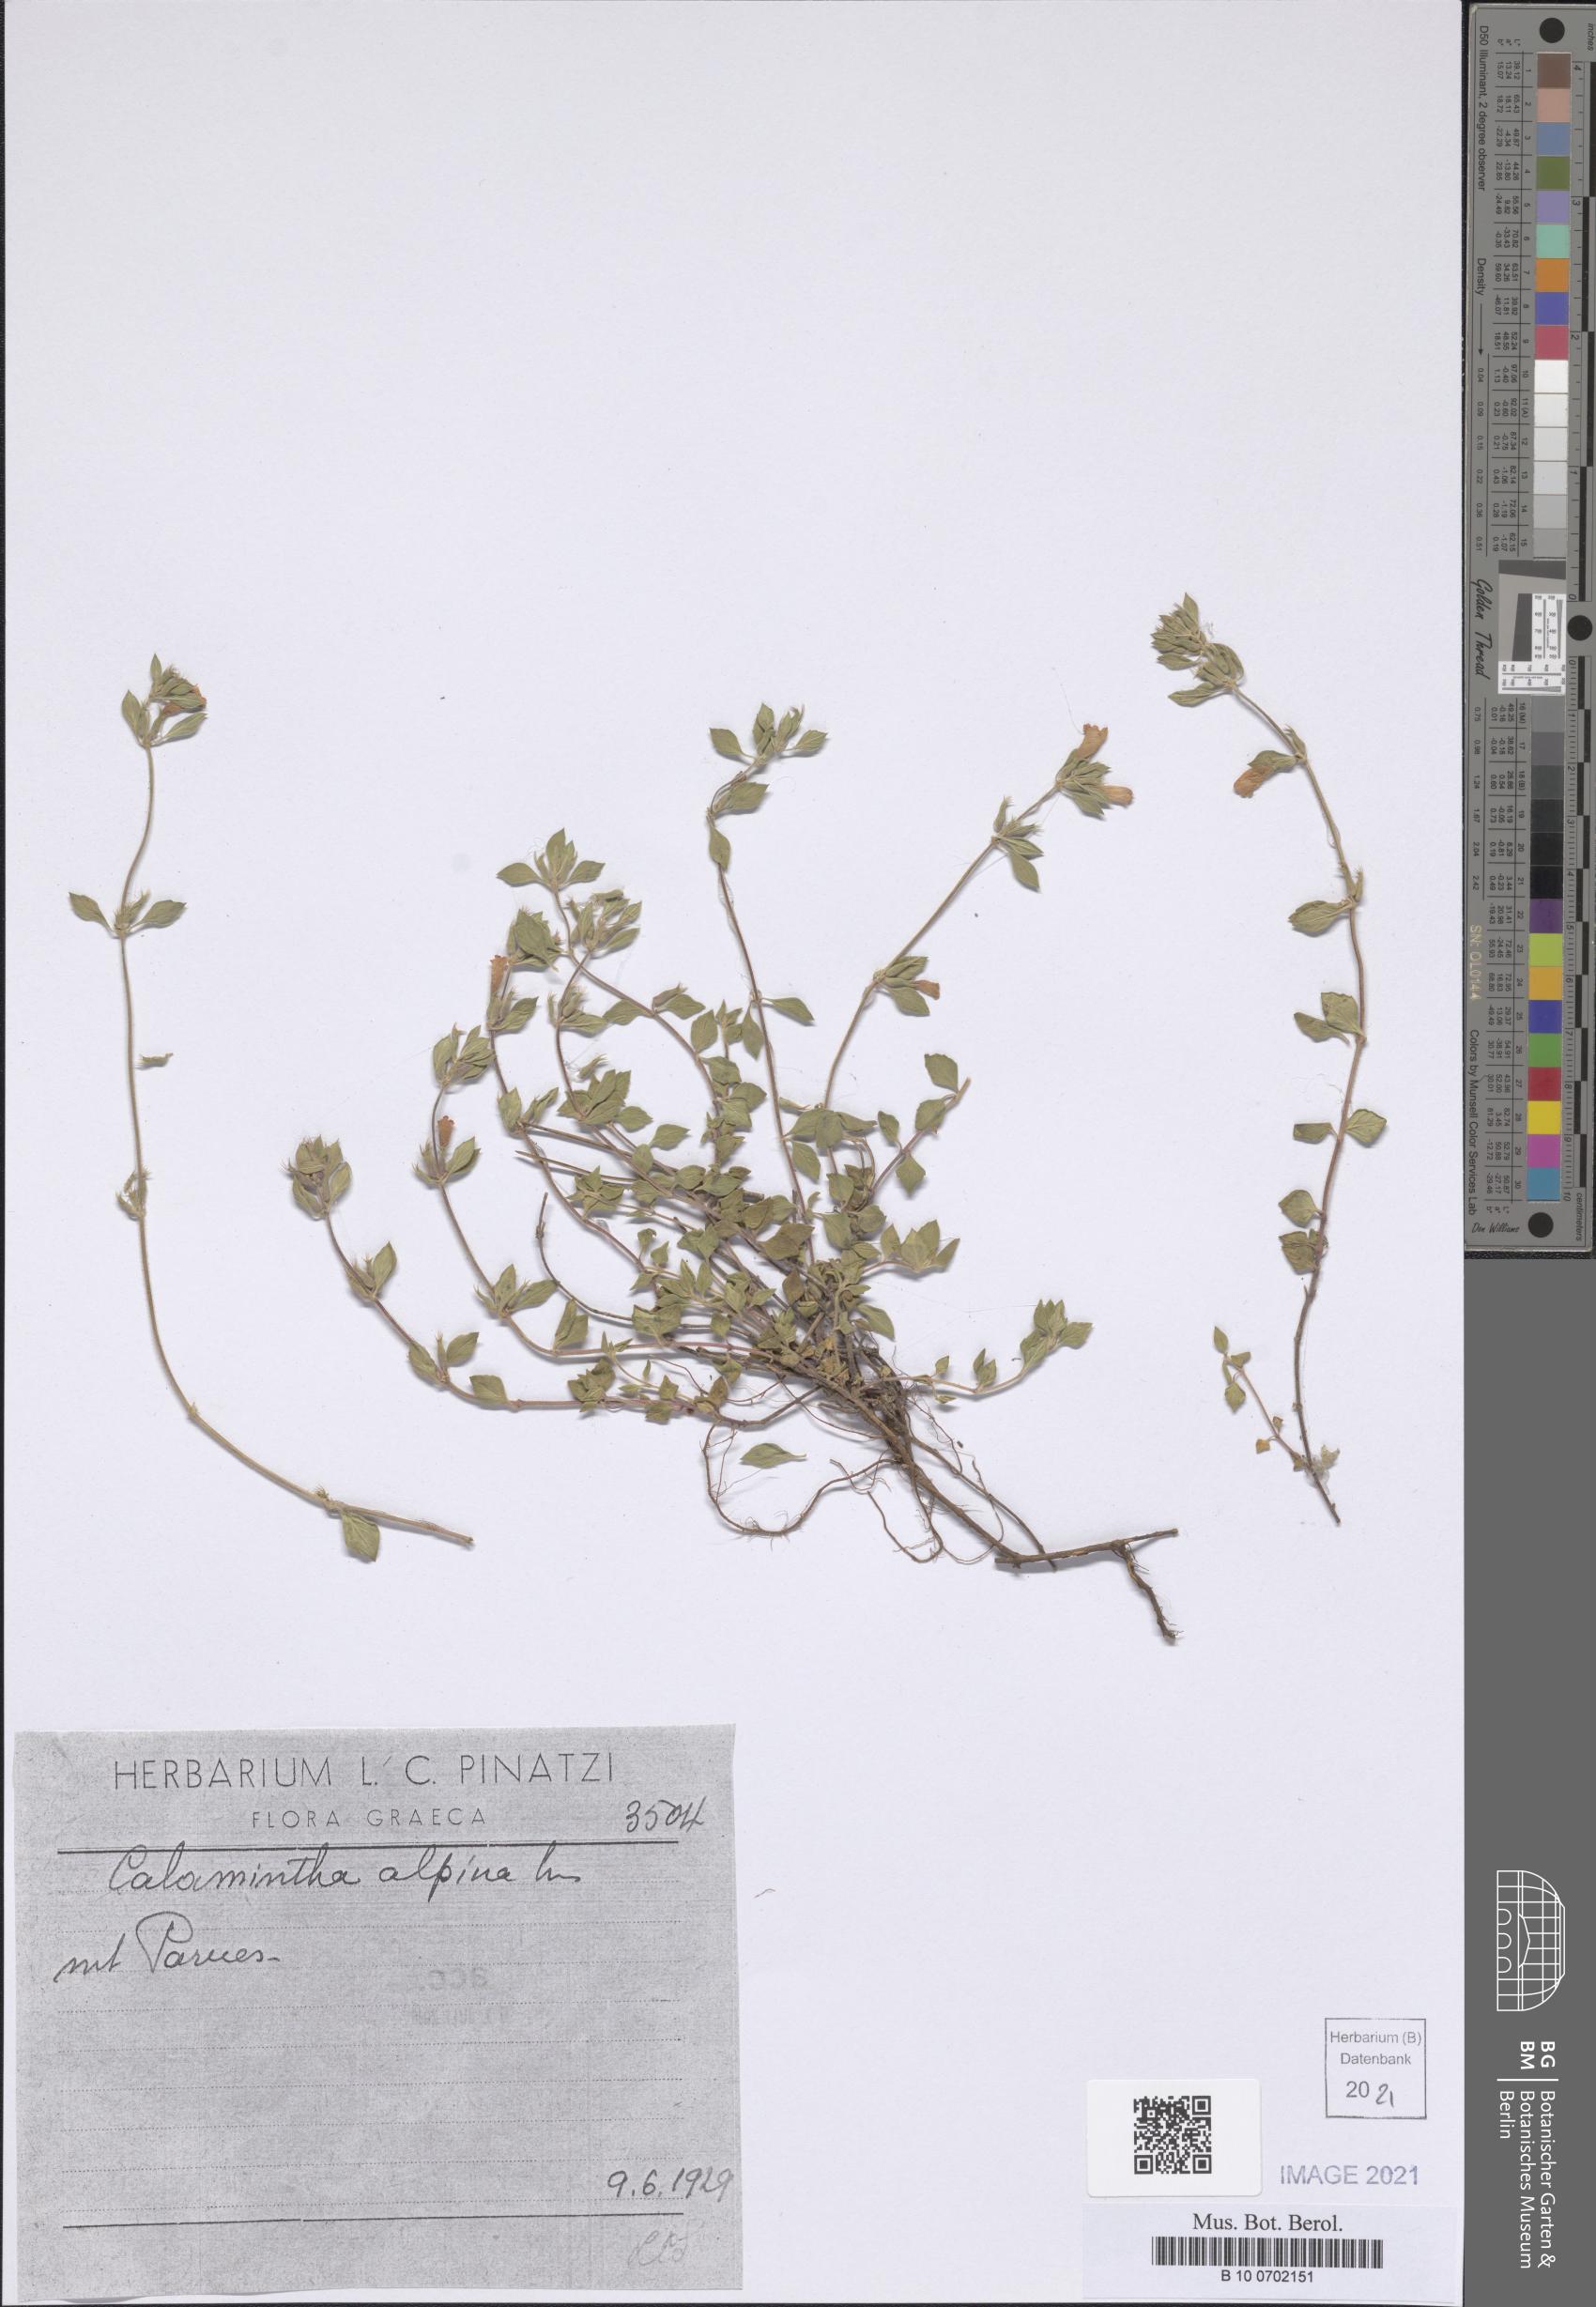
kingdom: Plantae
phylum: Tracheophyta
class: Magnoliopsida
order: Lamiales
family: Lamiaceae
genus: Clinopodium
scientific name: Clinopodium alpinum
